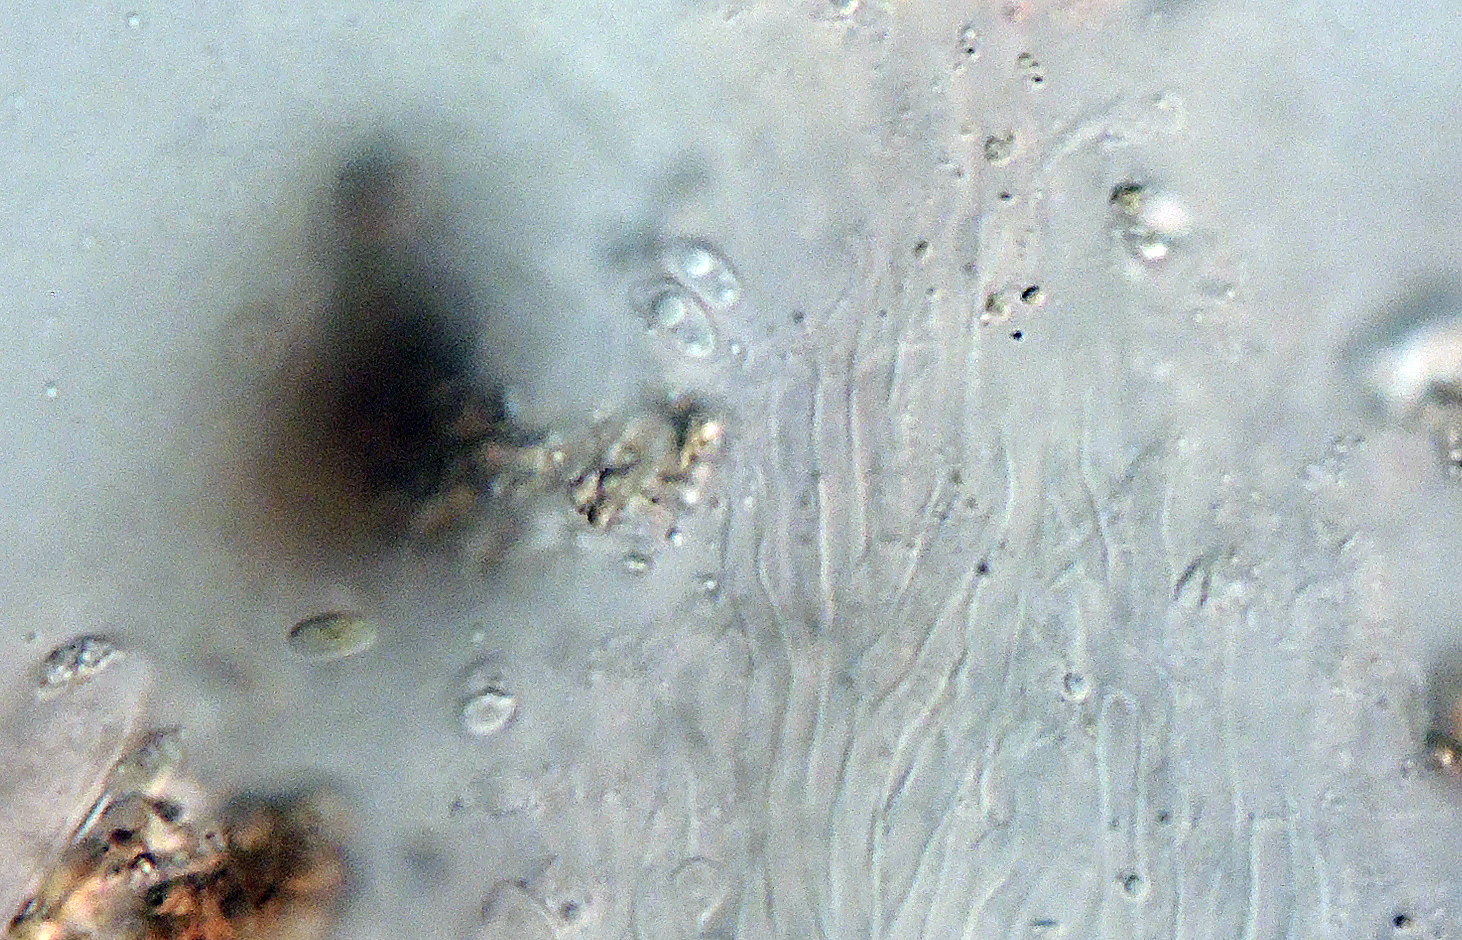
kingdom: Fungi
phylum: Basidiomycota
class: Agaricomycetes
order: Hymenochaetales
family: Rickenellaceae
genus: Cotylidia
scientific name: Cotylidia undulata
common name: tyndkødet navlesvamp
